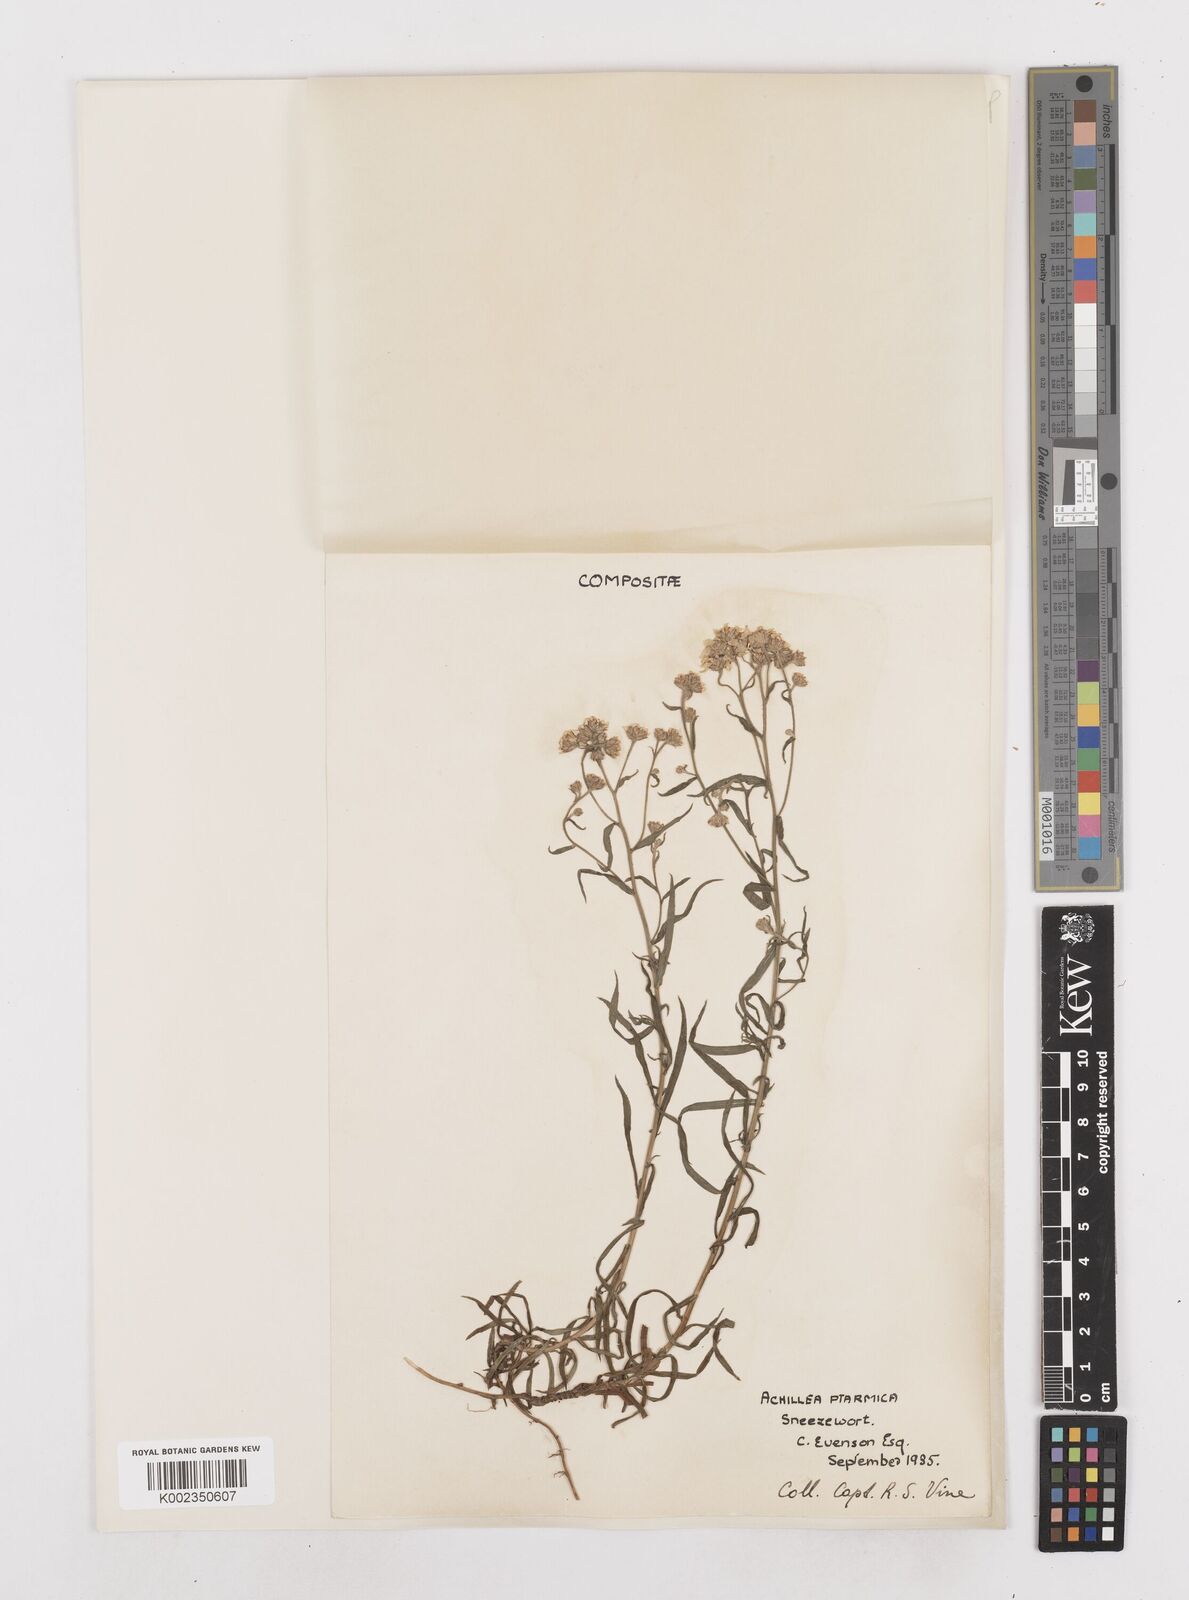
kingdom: Plantae
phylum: Tracheophyta
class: Magnoliopsida
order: Asterales
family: Asteraceae
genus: Achillea
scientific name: Achillea ptarmica
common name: Sneezeweed
